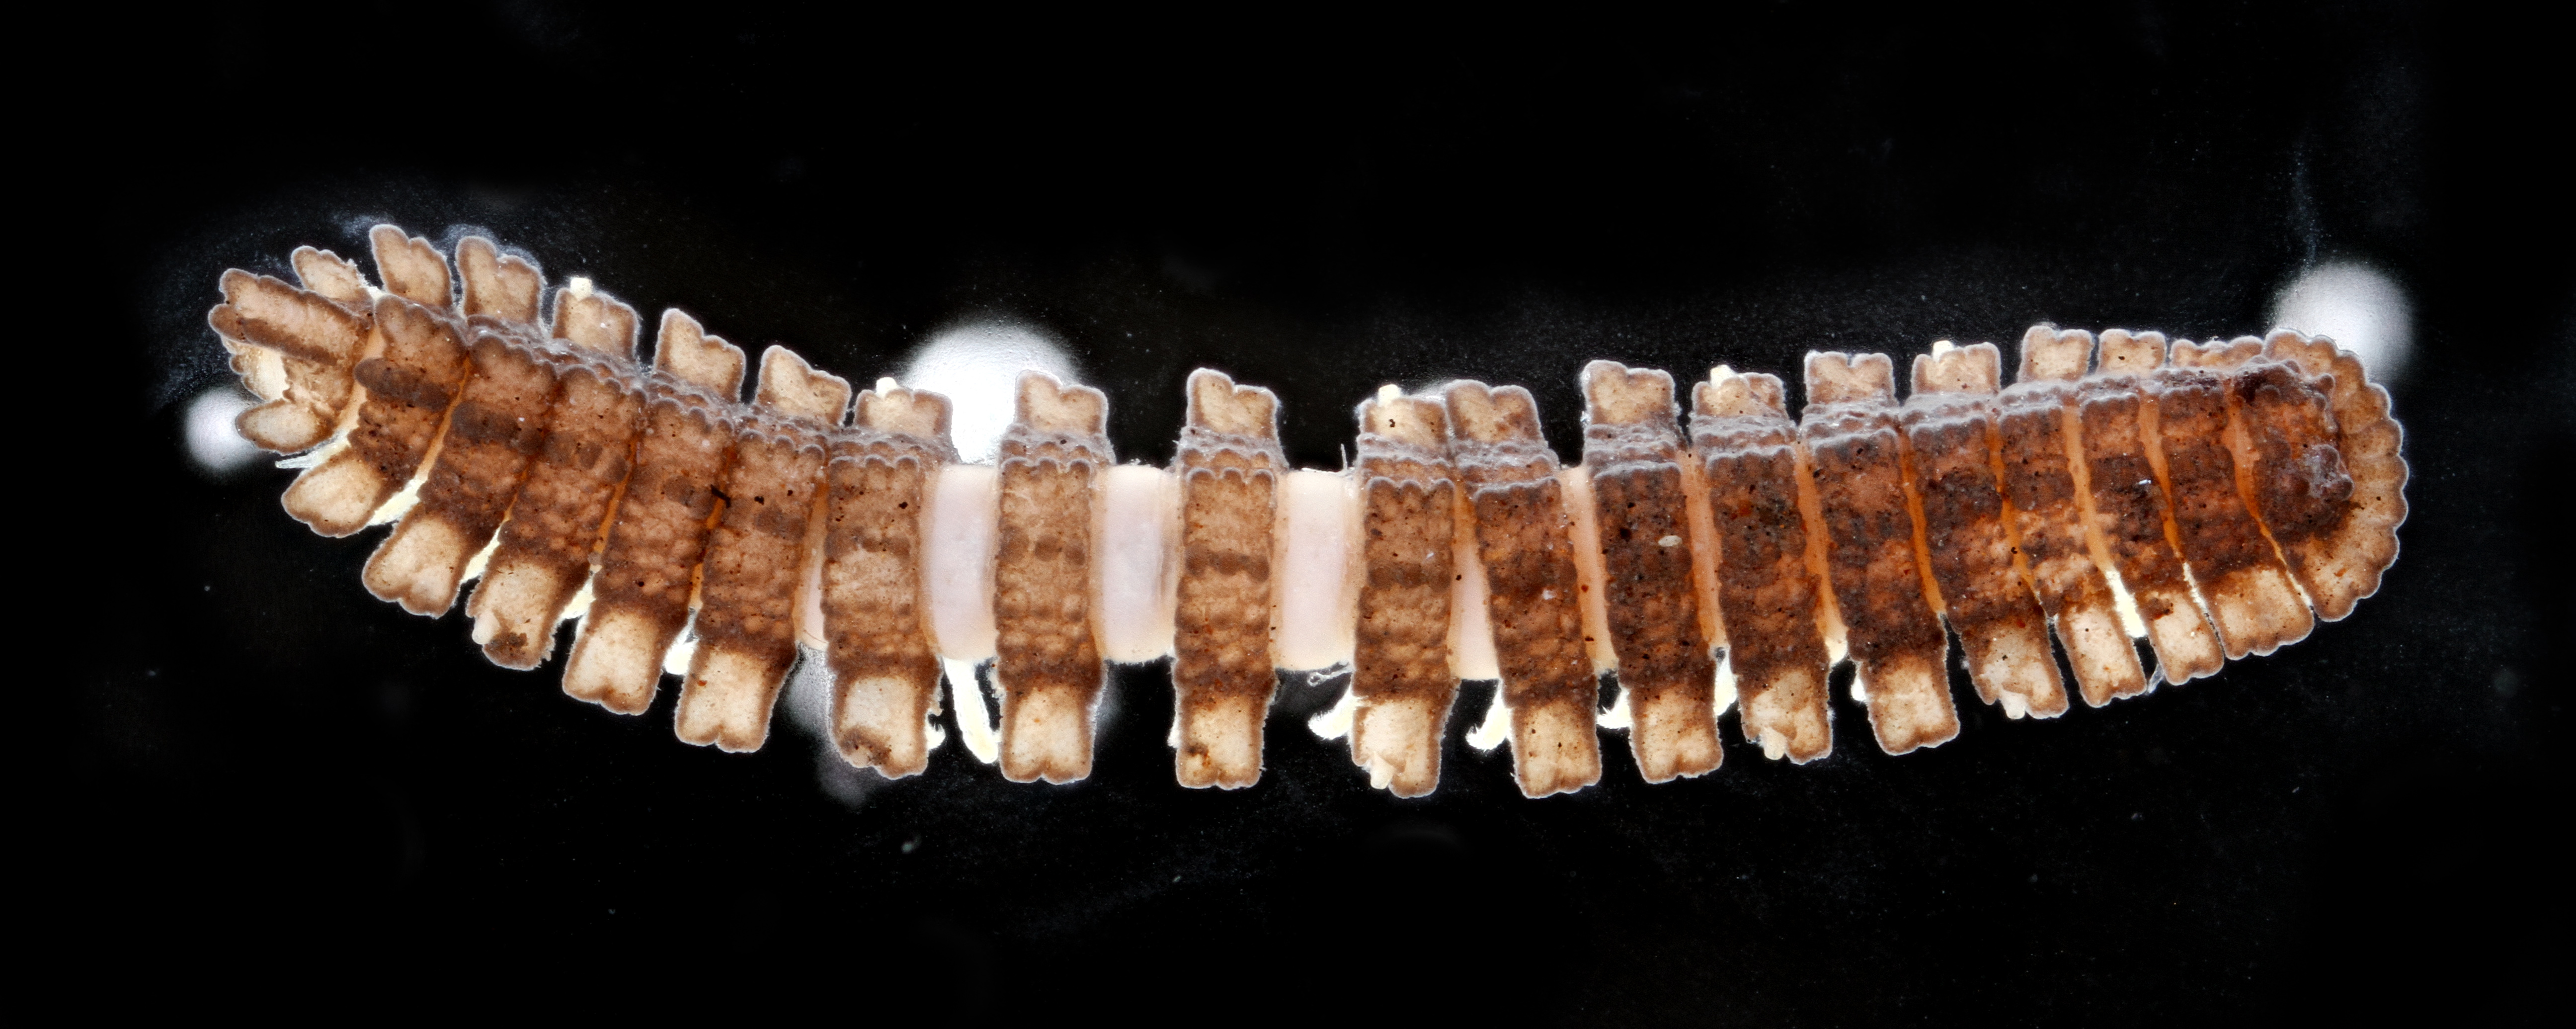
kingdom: Animalia
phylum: Arthropoda
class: Diplopoda
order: Polydesmida
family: Pyrgodesmidae
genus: Myrmecodesmus
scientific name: Myrmecodesmus formicarius
